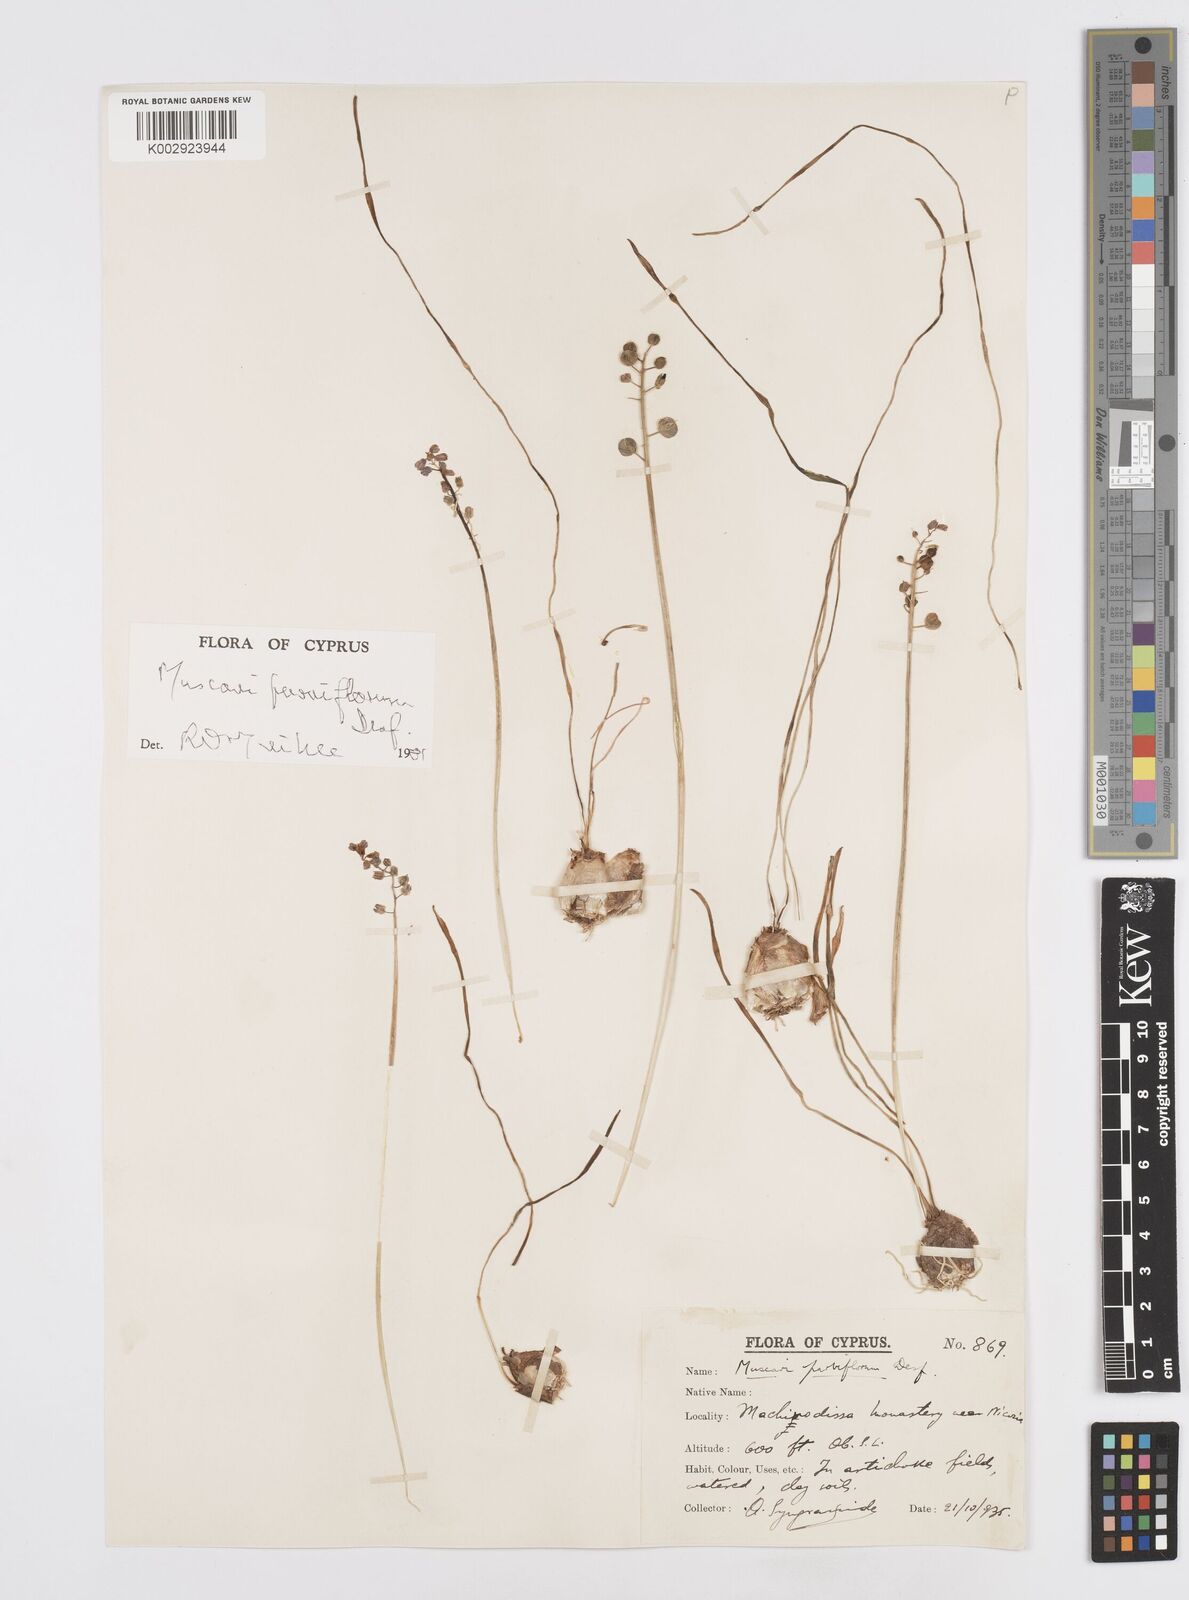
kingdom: Plantae
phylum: Tracheophyta
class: Liliopsida
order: Asparagales
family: Asparagaceae
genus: Muscari
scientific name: Muscari parviflorum
